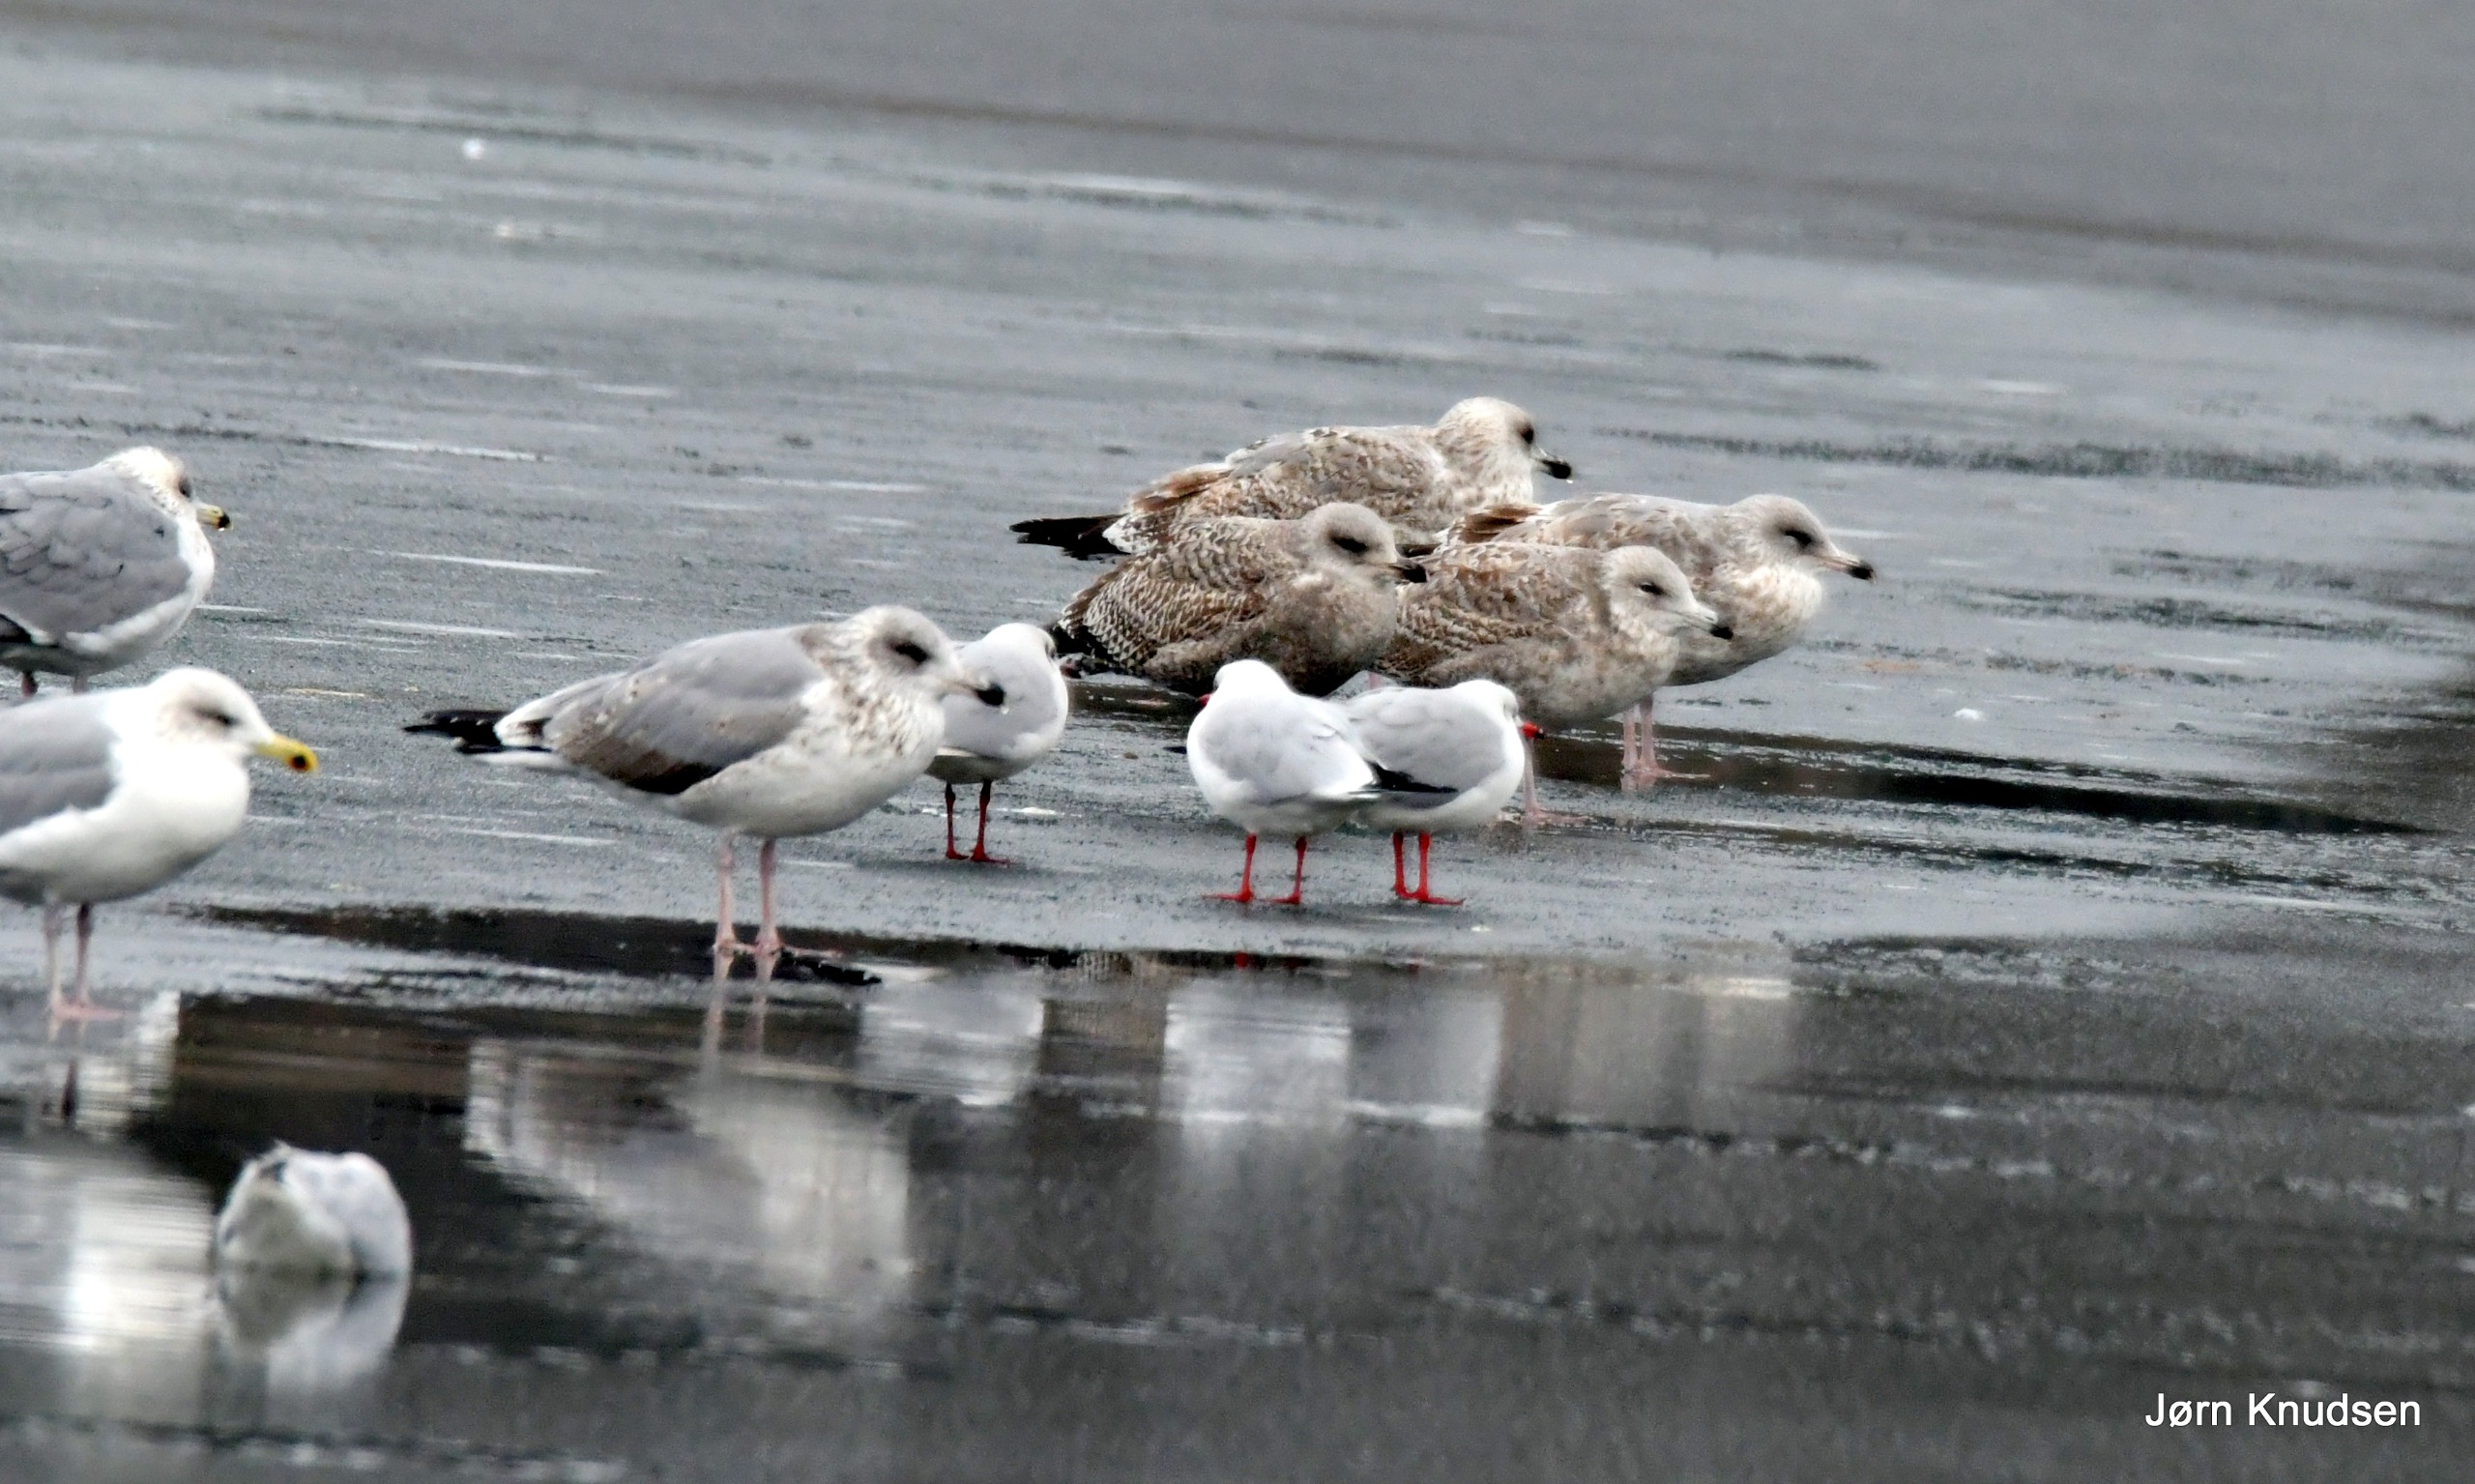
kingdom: Animalia
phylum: Chordata
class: Aves
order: Charadriiformes
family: Laridae
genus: Larus
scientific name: Larus argentatus
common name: Sølvmåge
